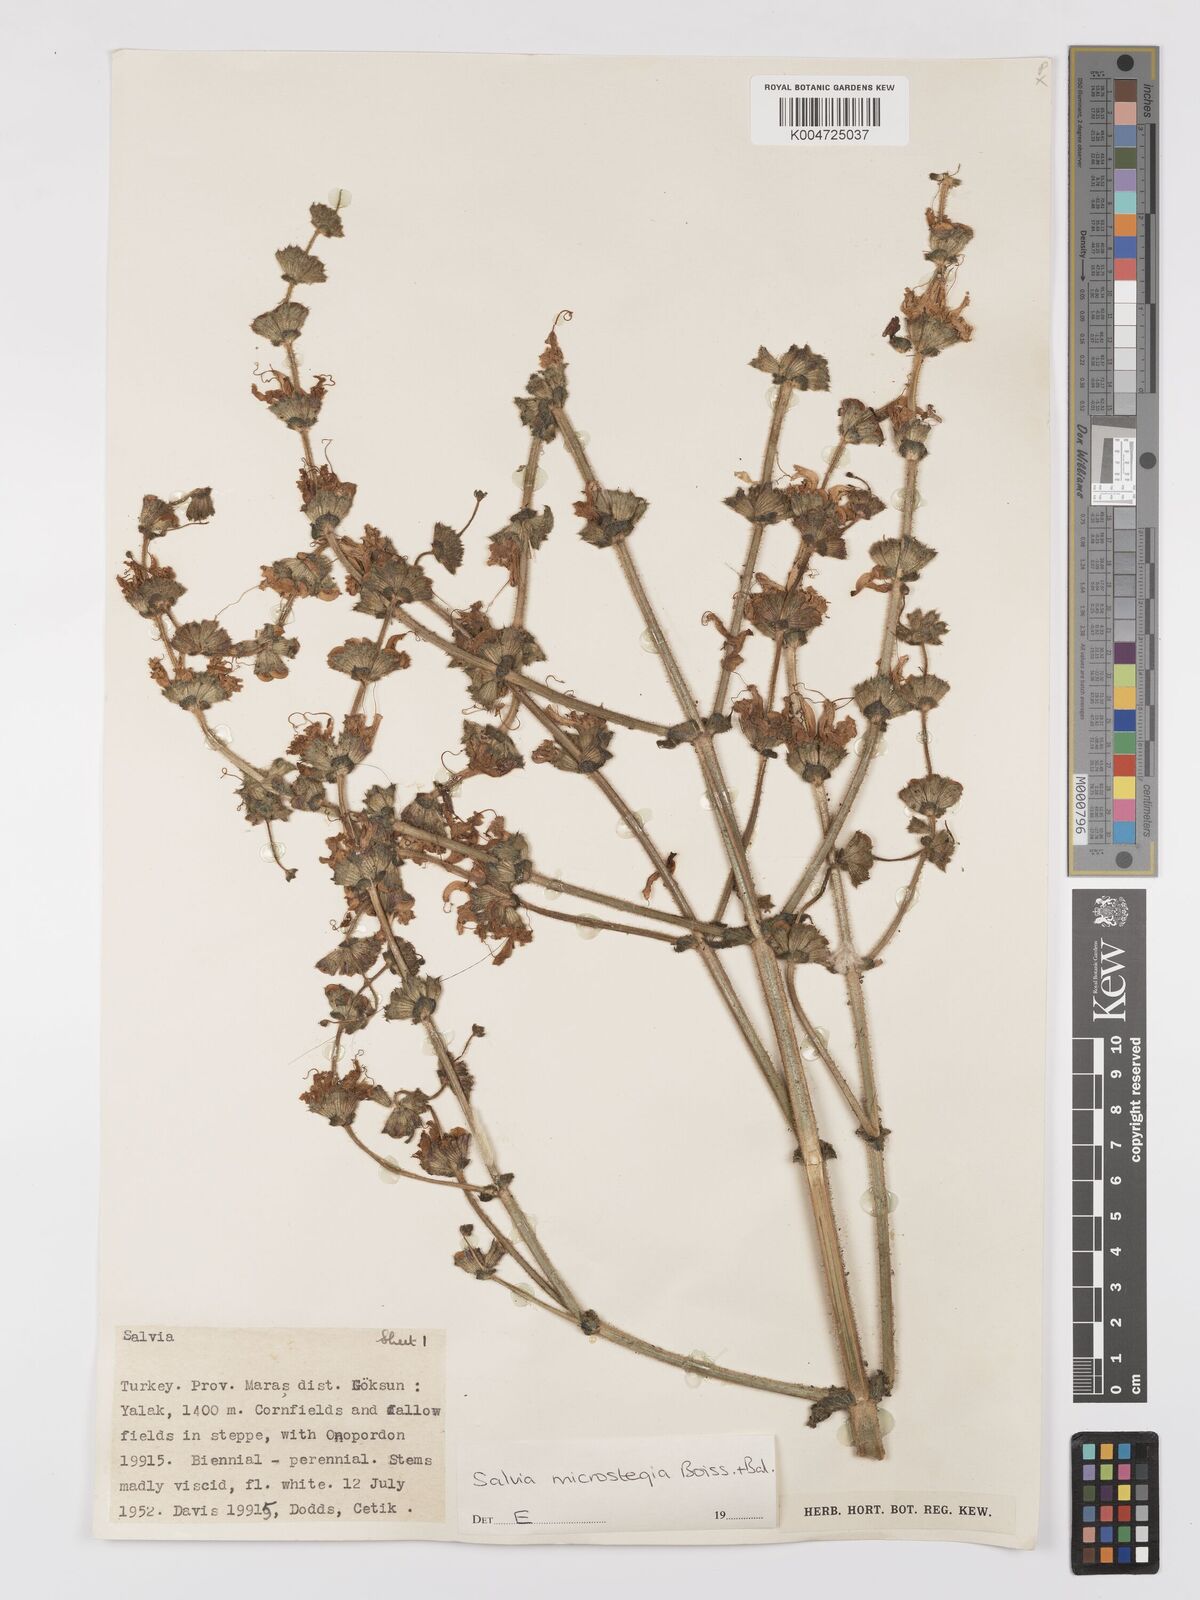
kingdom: Plantae
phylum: Tracheophyta
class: Magnoliopsida
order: Lamiales
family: Lamiaceae
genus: Salvia
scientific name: Salvia microstegia
